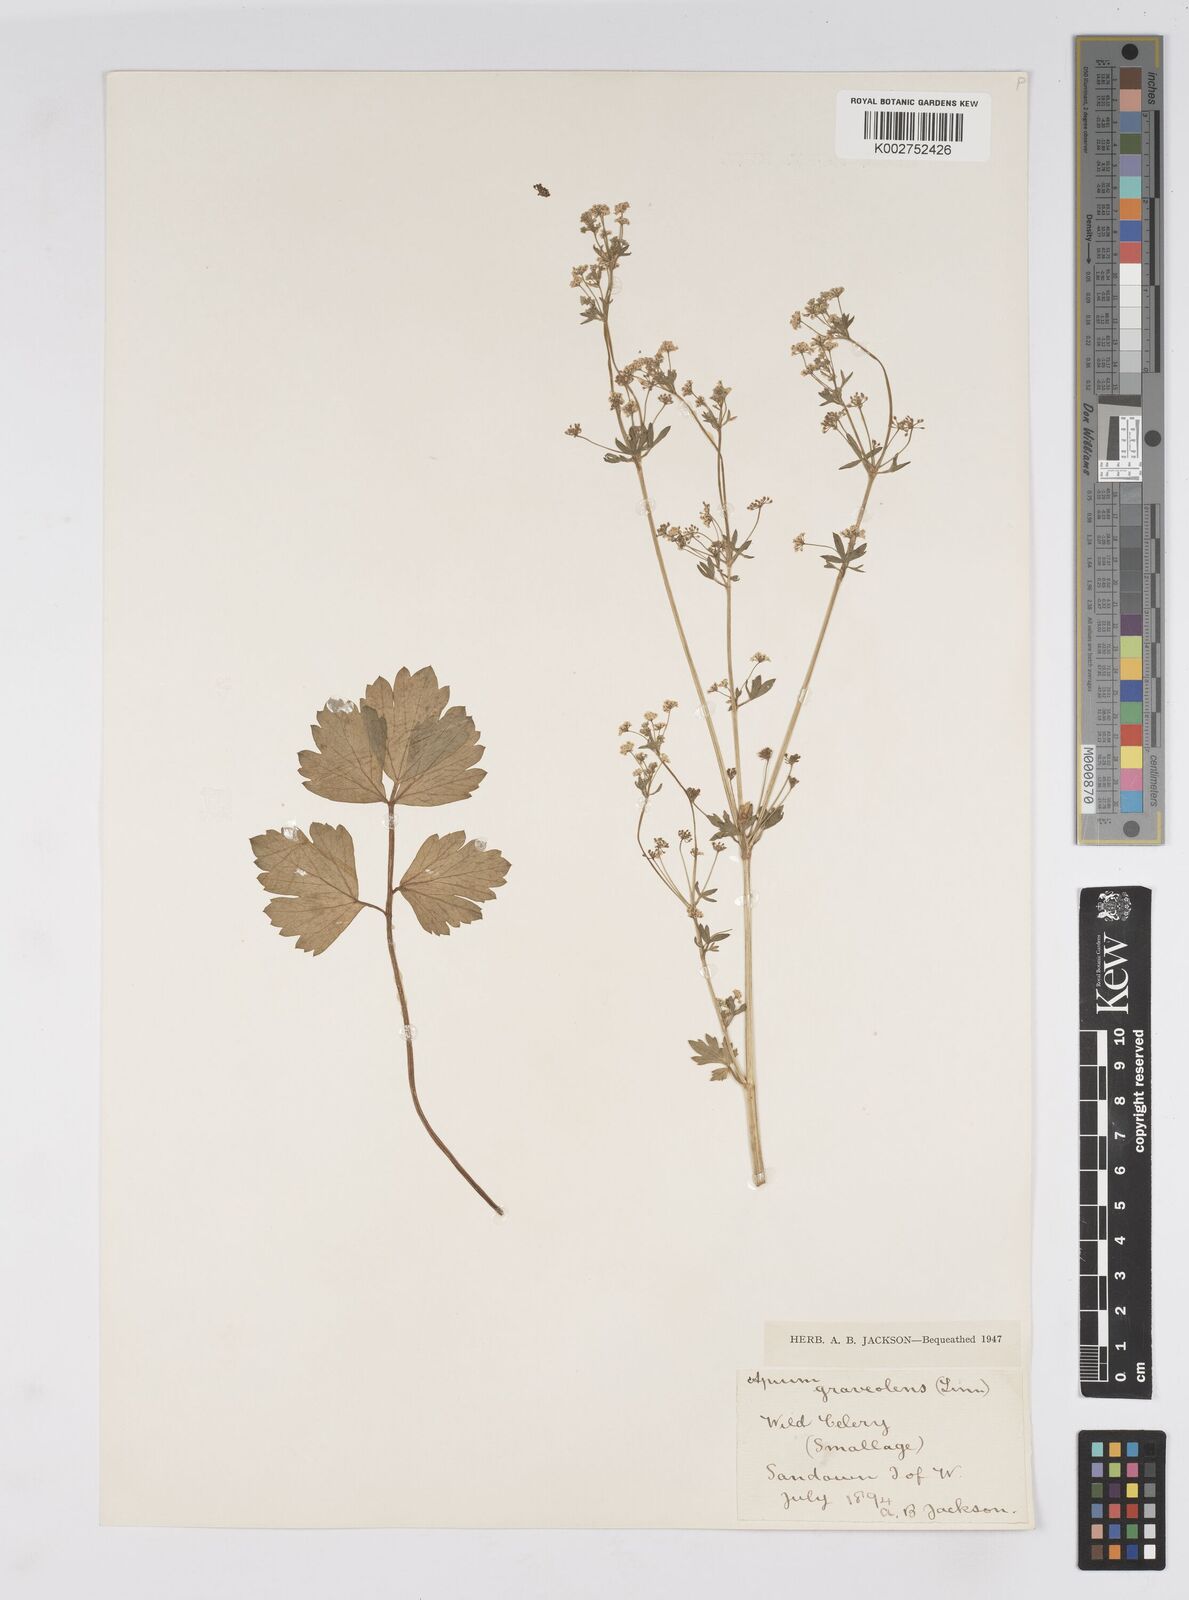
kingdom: Plantae
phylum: Tracheophyta
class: Magnoliopsida
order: Apiales
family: Apiaceae
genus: Apium
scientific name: Apium graveolens
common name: Wild celery
